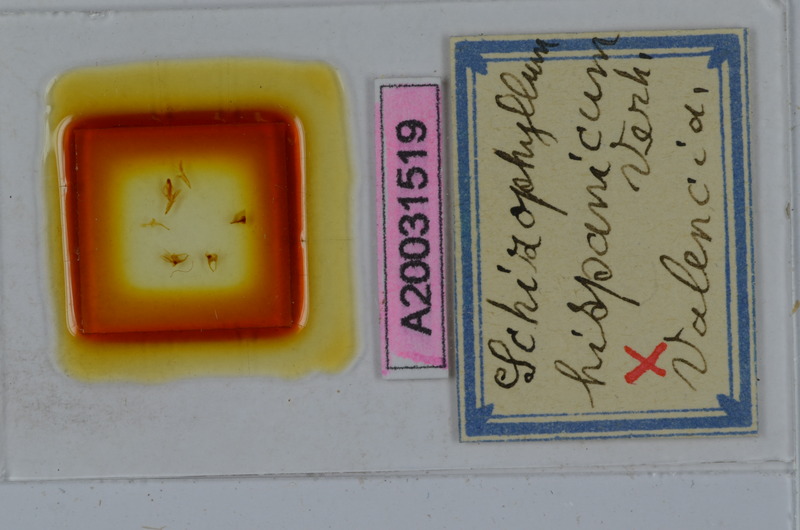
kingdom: Animalia
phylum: Arthropoda
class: Diplopoda
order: Julida
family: Julidae
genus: Ommatoiulus
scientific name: Ommatoiulus rutilans
